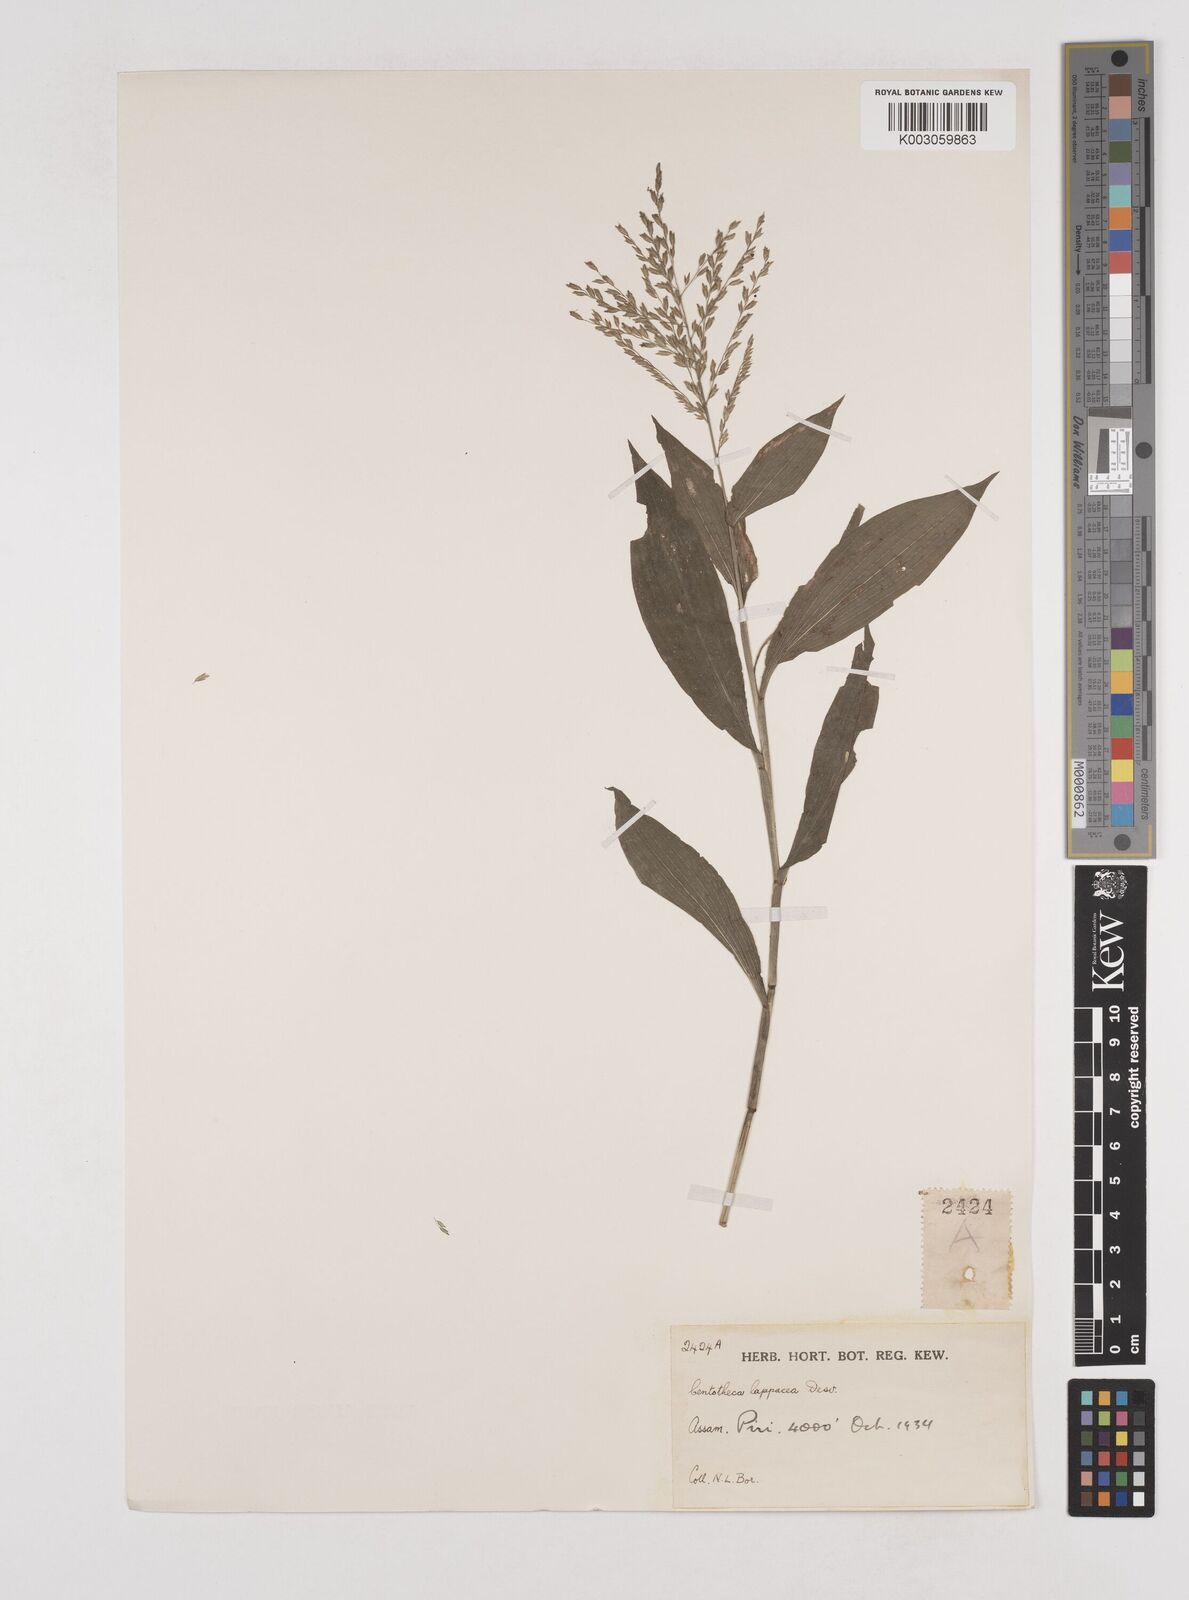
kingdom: Plantae
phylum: Tracheophyta
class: Liliopsida
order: Poales
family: Poaceae
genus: Centotheca
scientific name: Centotheca lappacea
